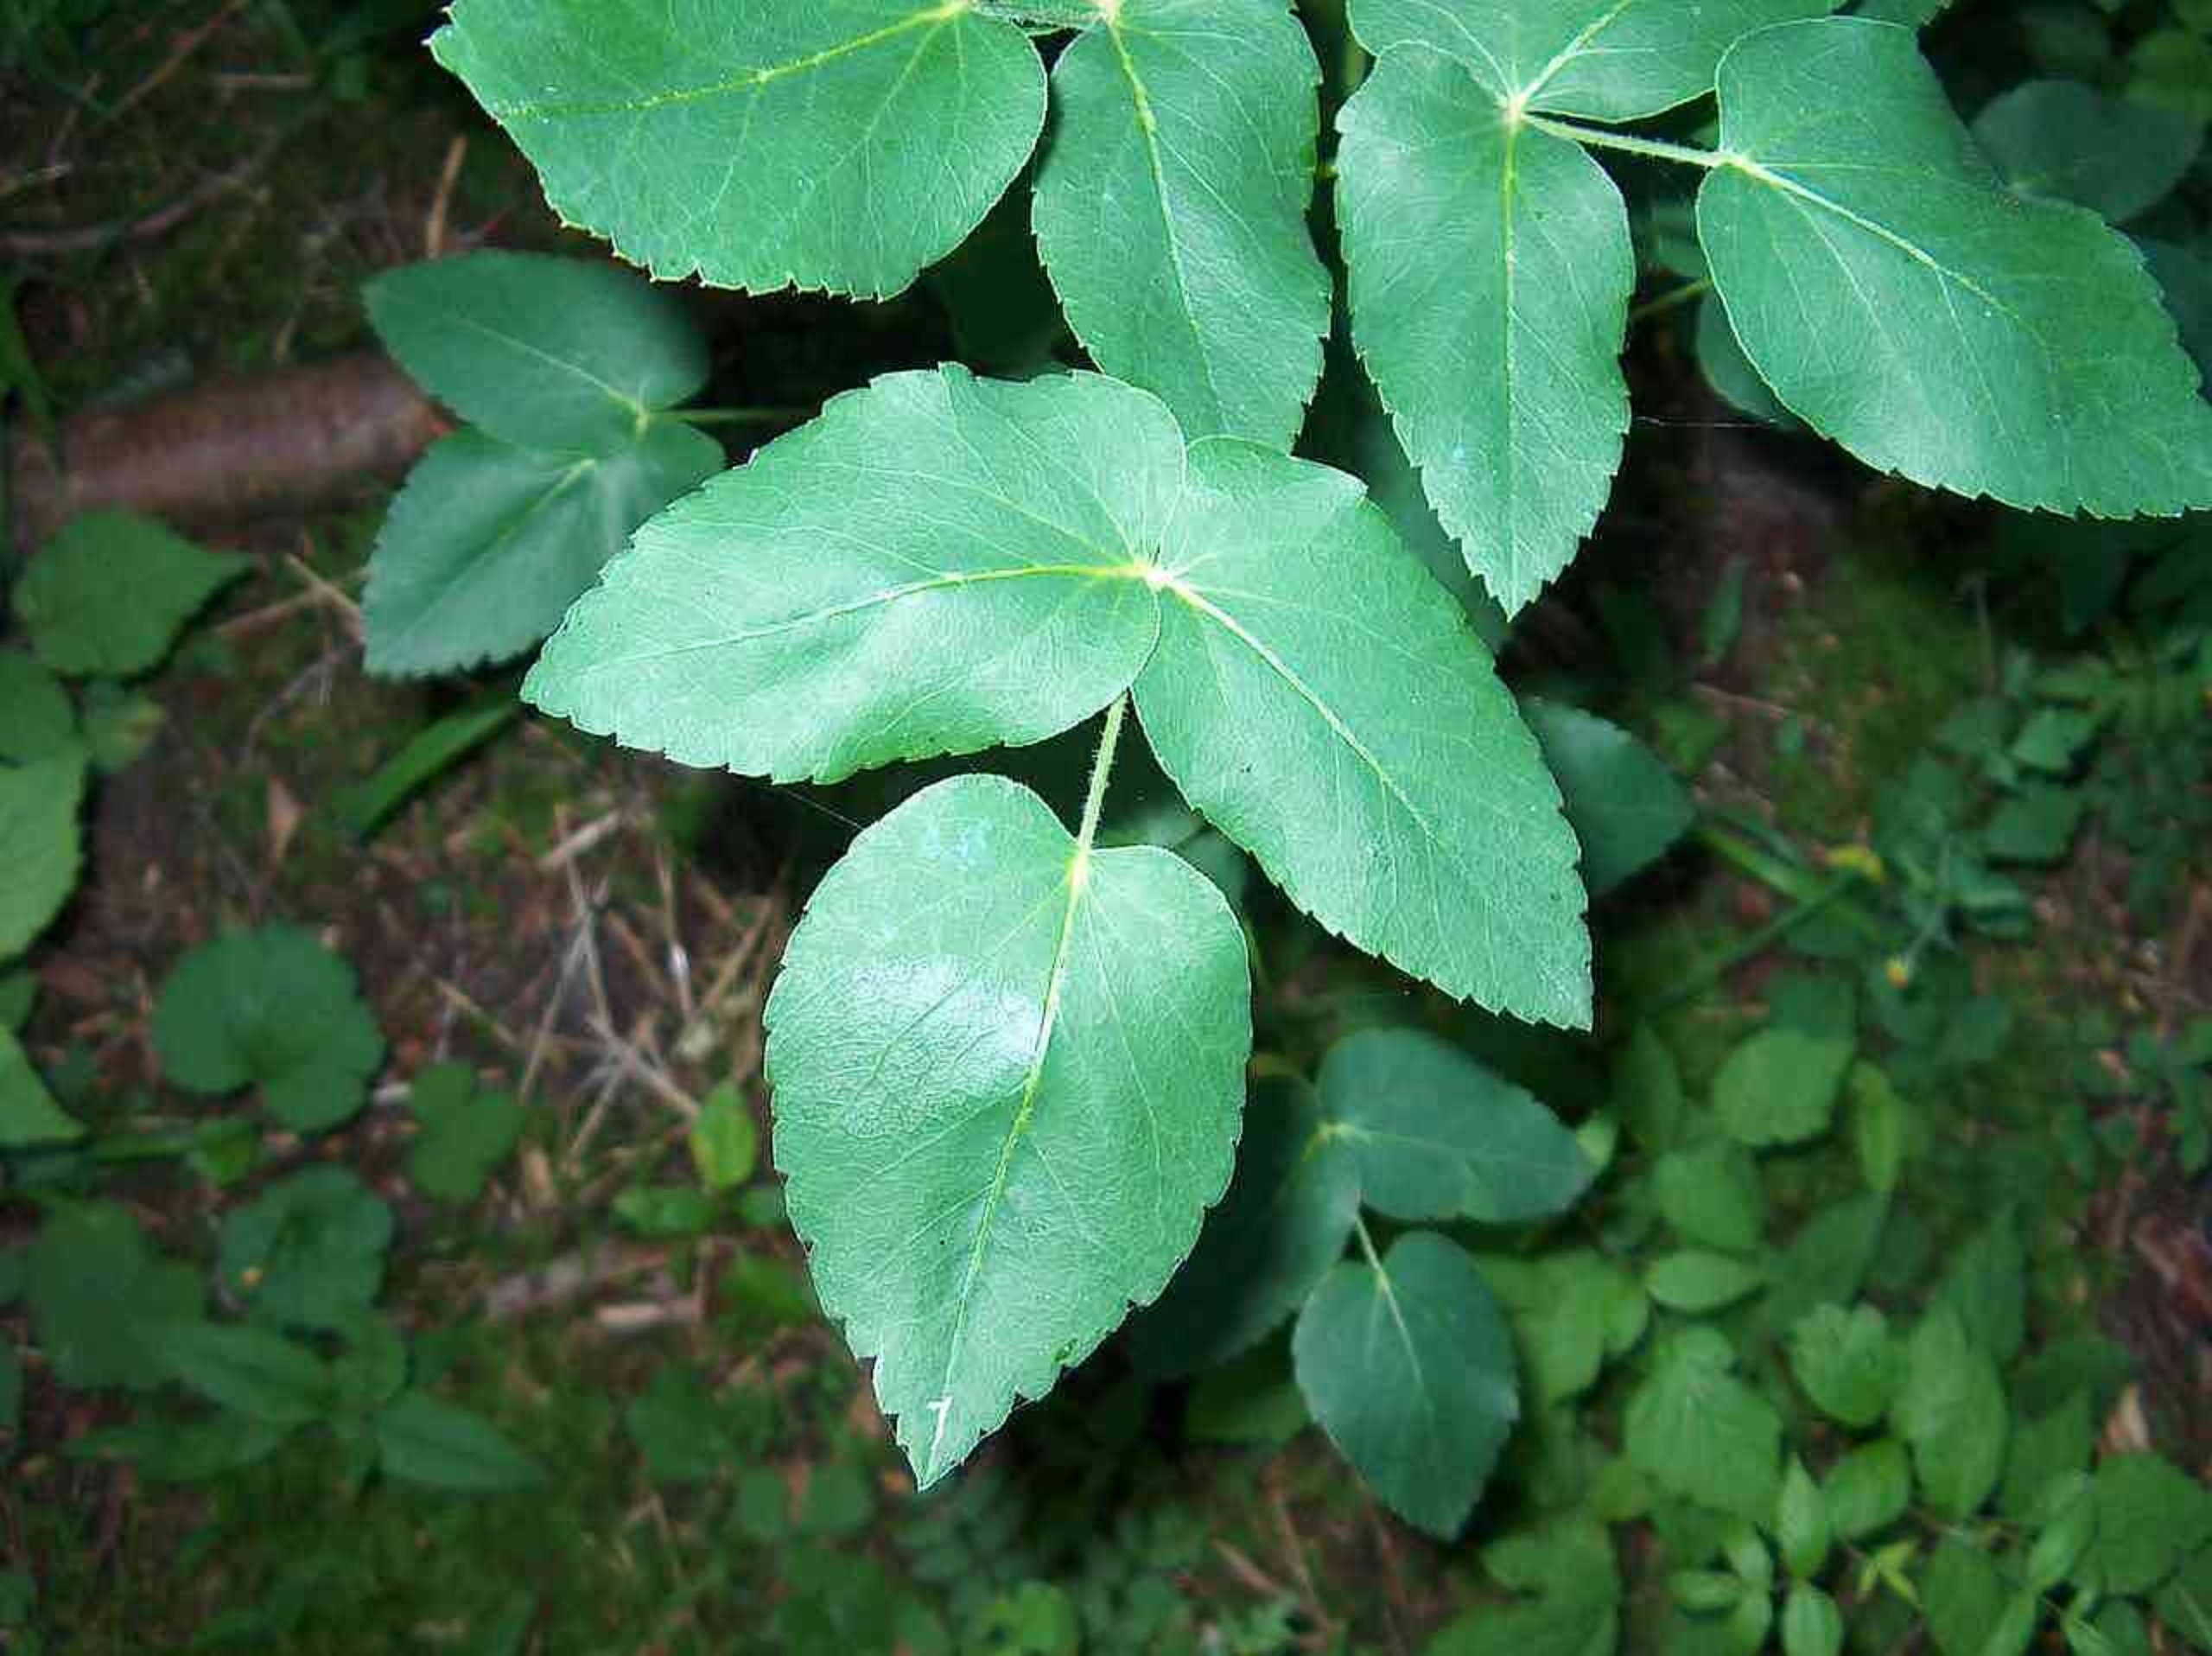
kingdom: Plantae
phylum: Tracheophyta
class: Magnoliopsida
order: Apiales
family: Apiaceae
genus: Laserpitium
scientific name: Laserpitium latifolium
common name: Foldfrø
